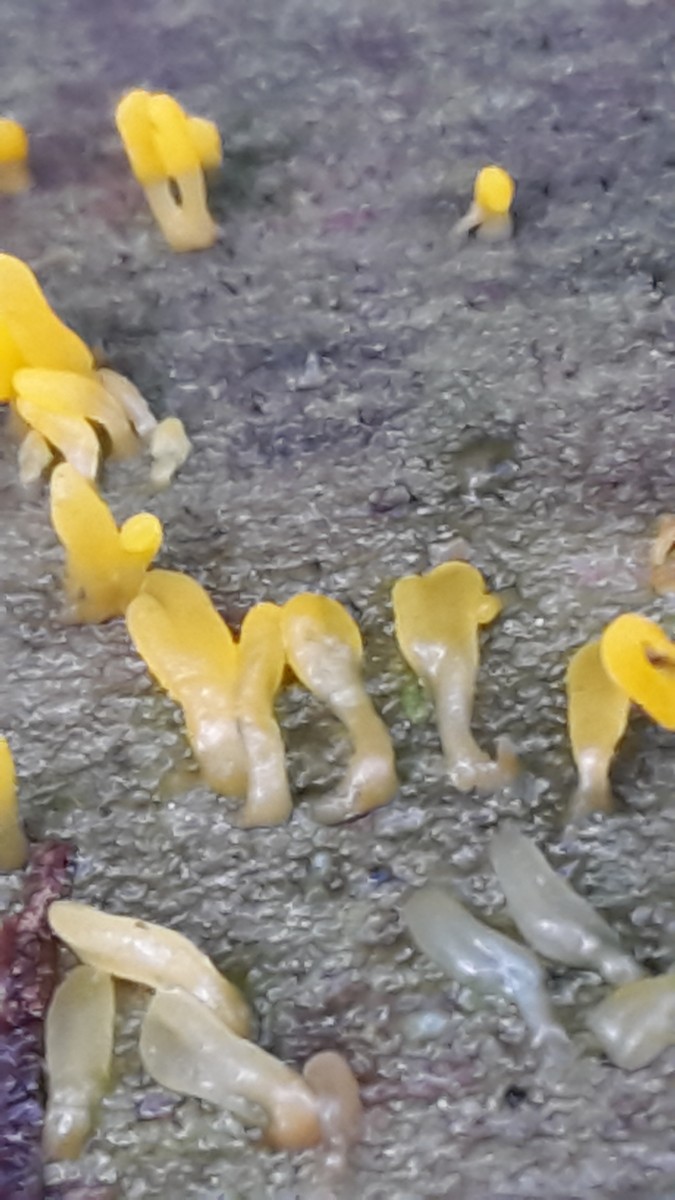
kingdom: Fungi
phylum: Basidiomycota
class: Dacrymycetes
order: Dacrymycetales
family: Dacrymycetaceae
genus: Calocera
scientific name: Calocera
